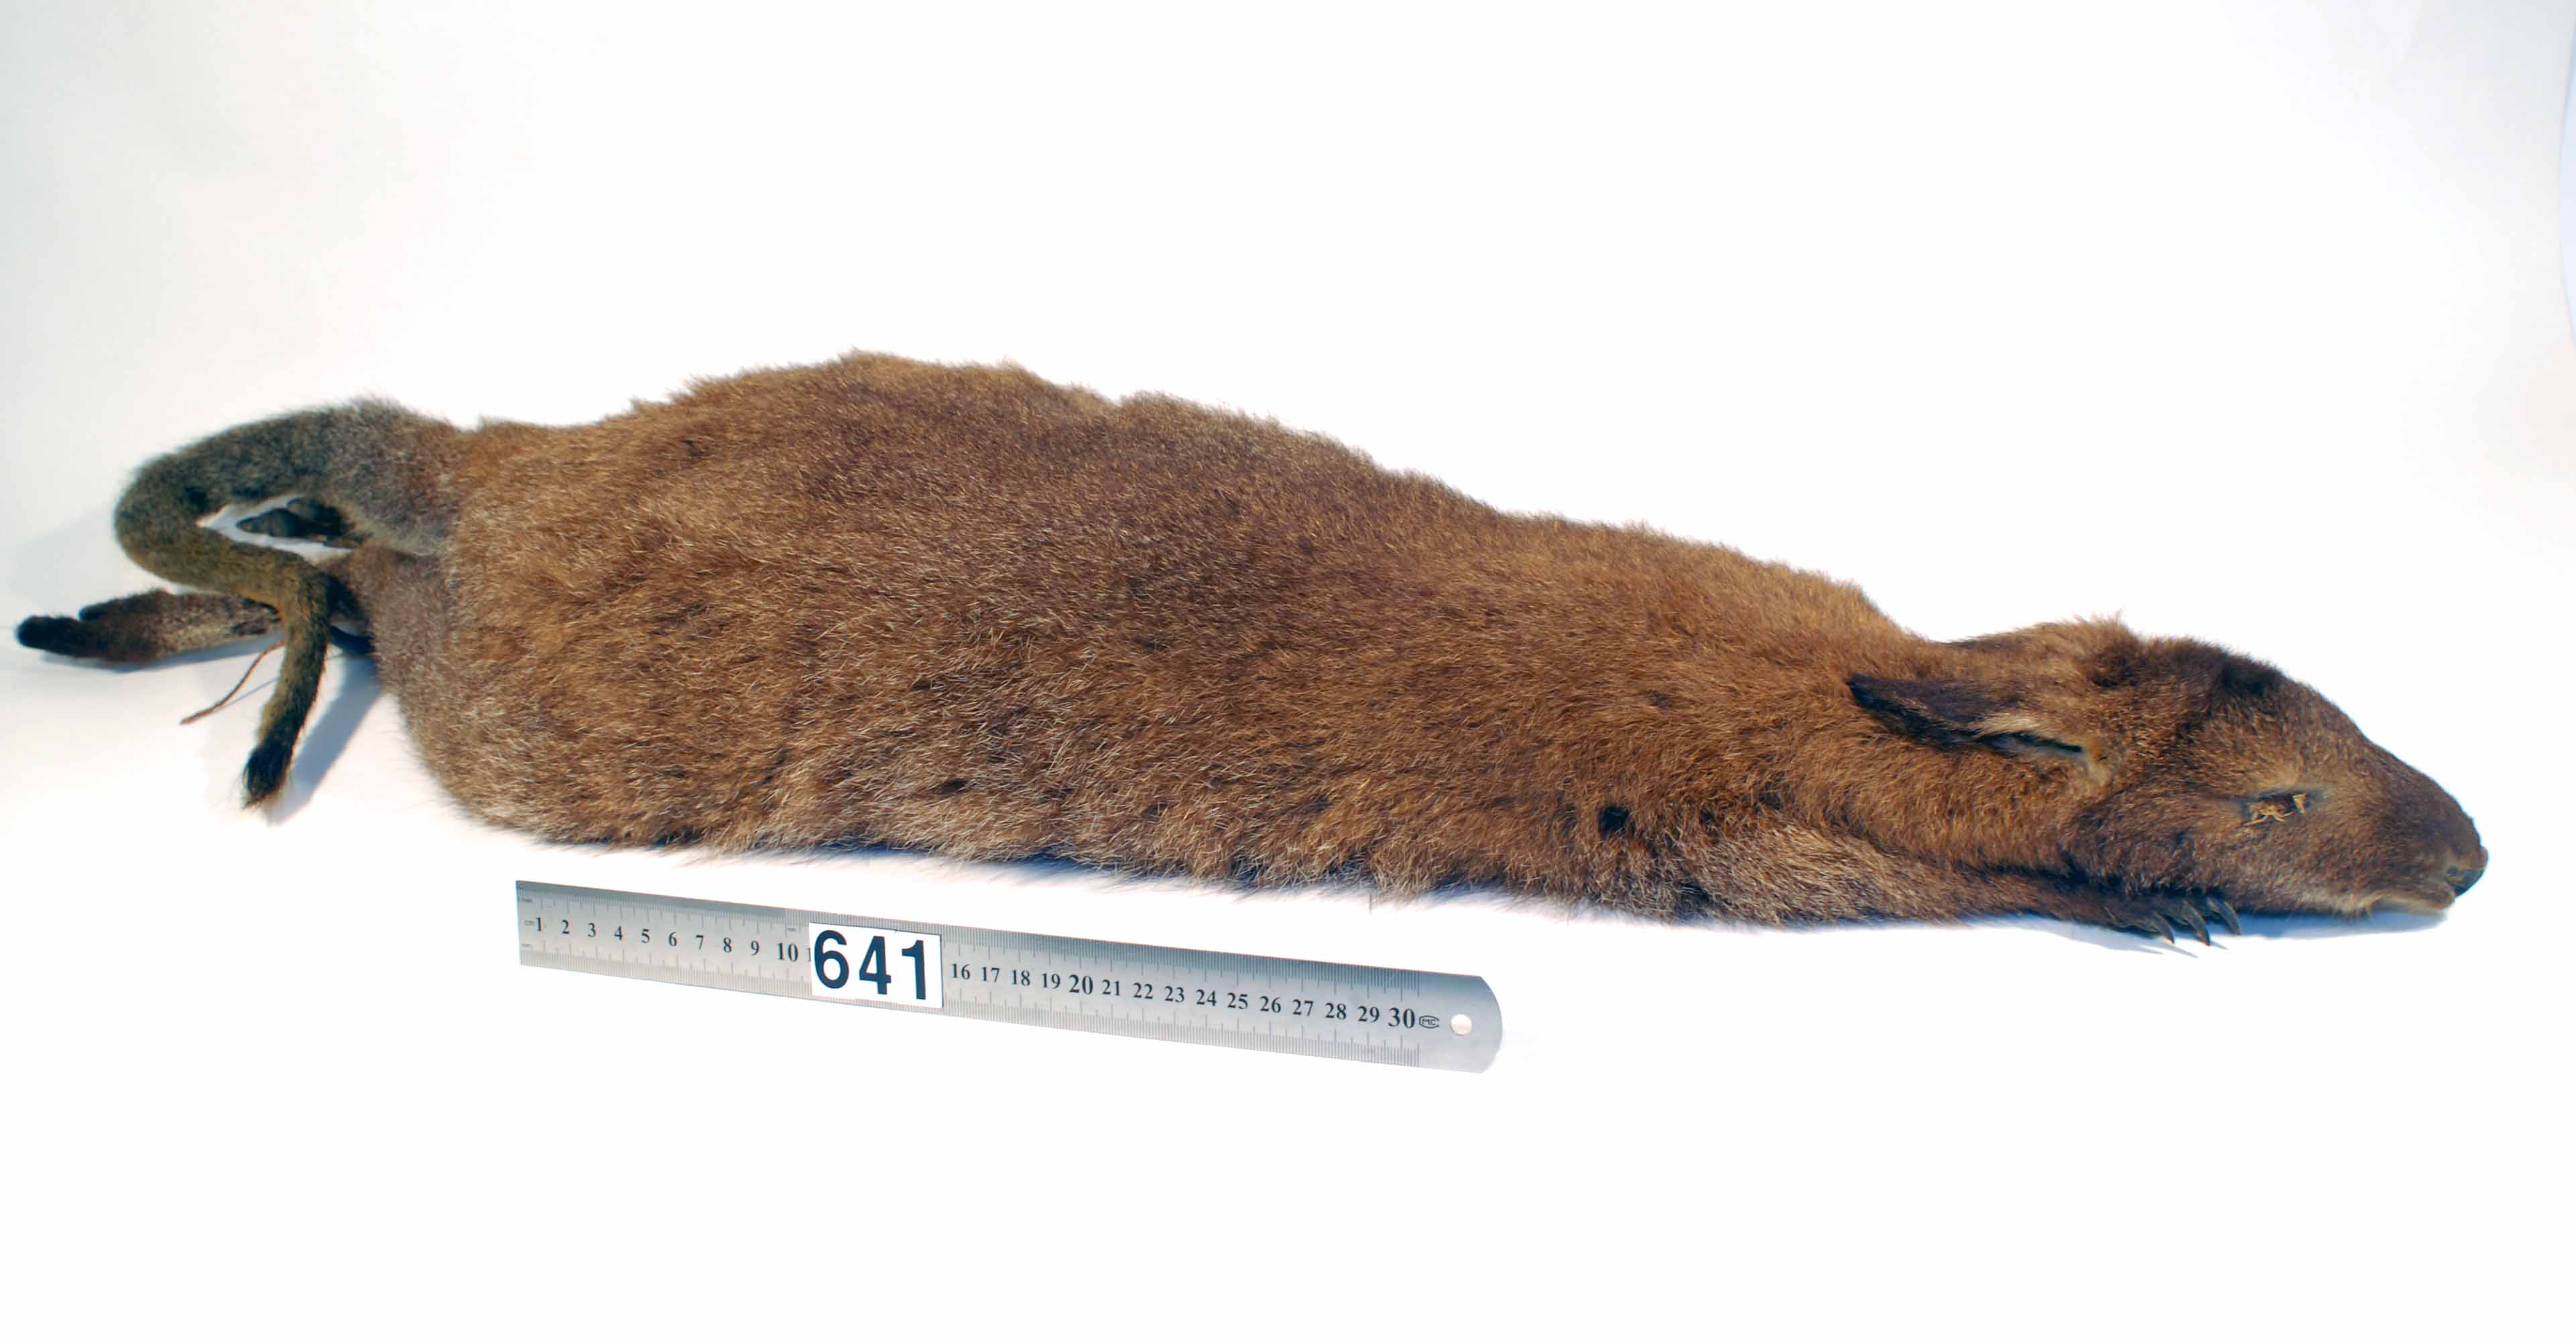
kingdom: Animalia
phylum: Chordata
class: Mammalia
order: Diprotodontia
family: Macropodidae
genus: Macropus
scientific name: Macropus rufogriseus
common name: Red-necked wallaby
